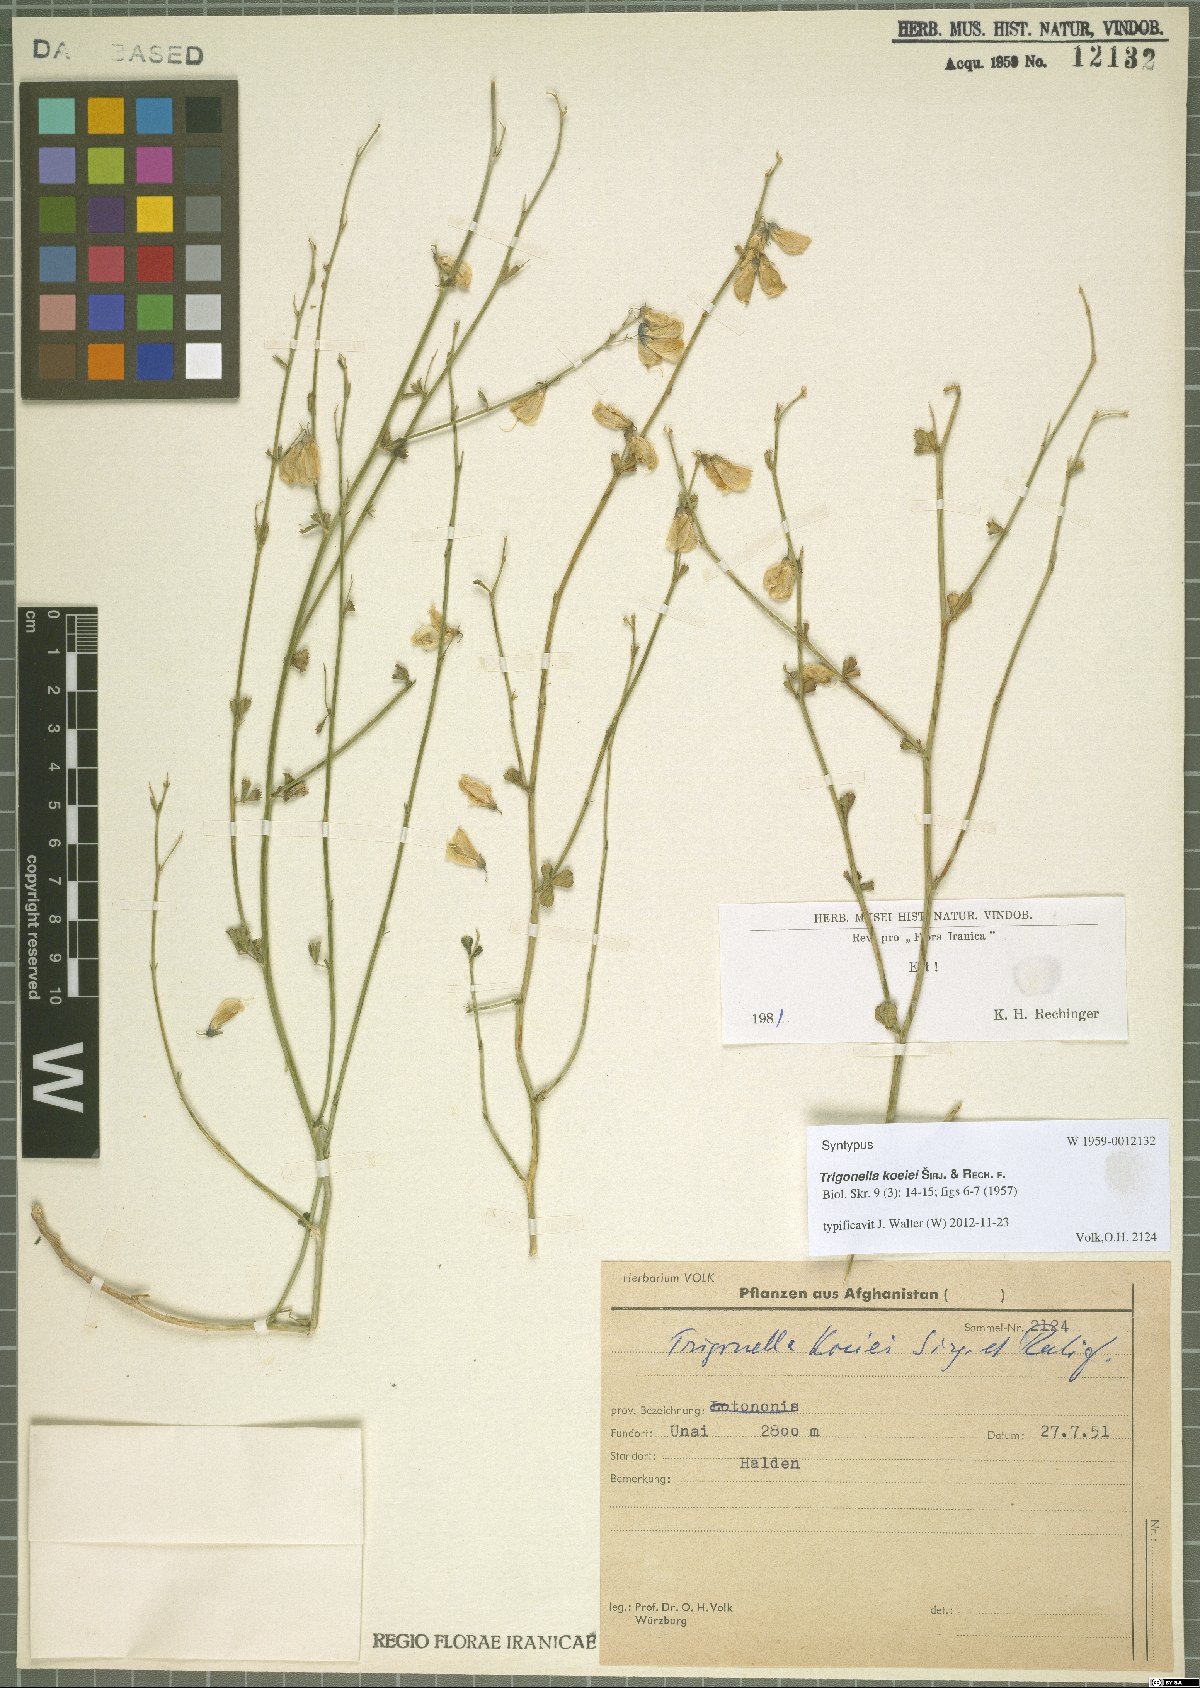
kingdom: Plantae
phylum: Tracheophyta
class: Magnoliopsida
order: Fabales
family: Fabaceae
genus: Trigonella
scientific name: Trigonella koeiei
